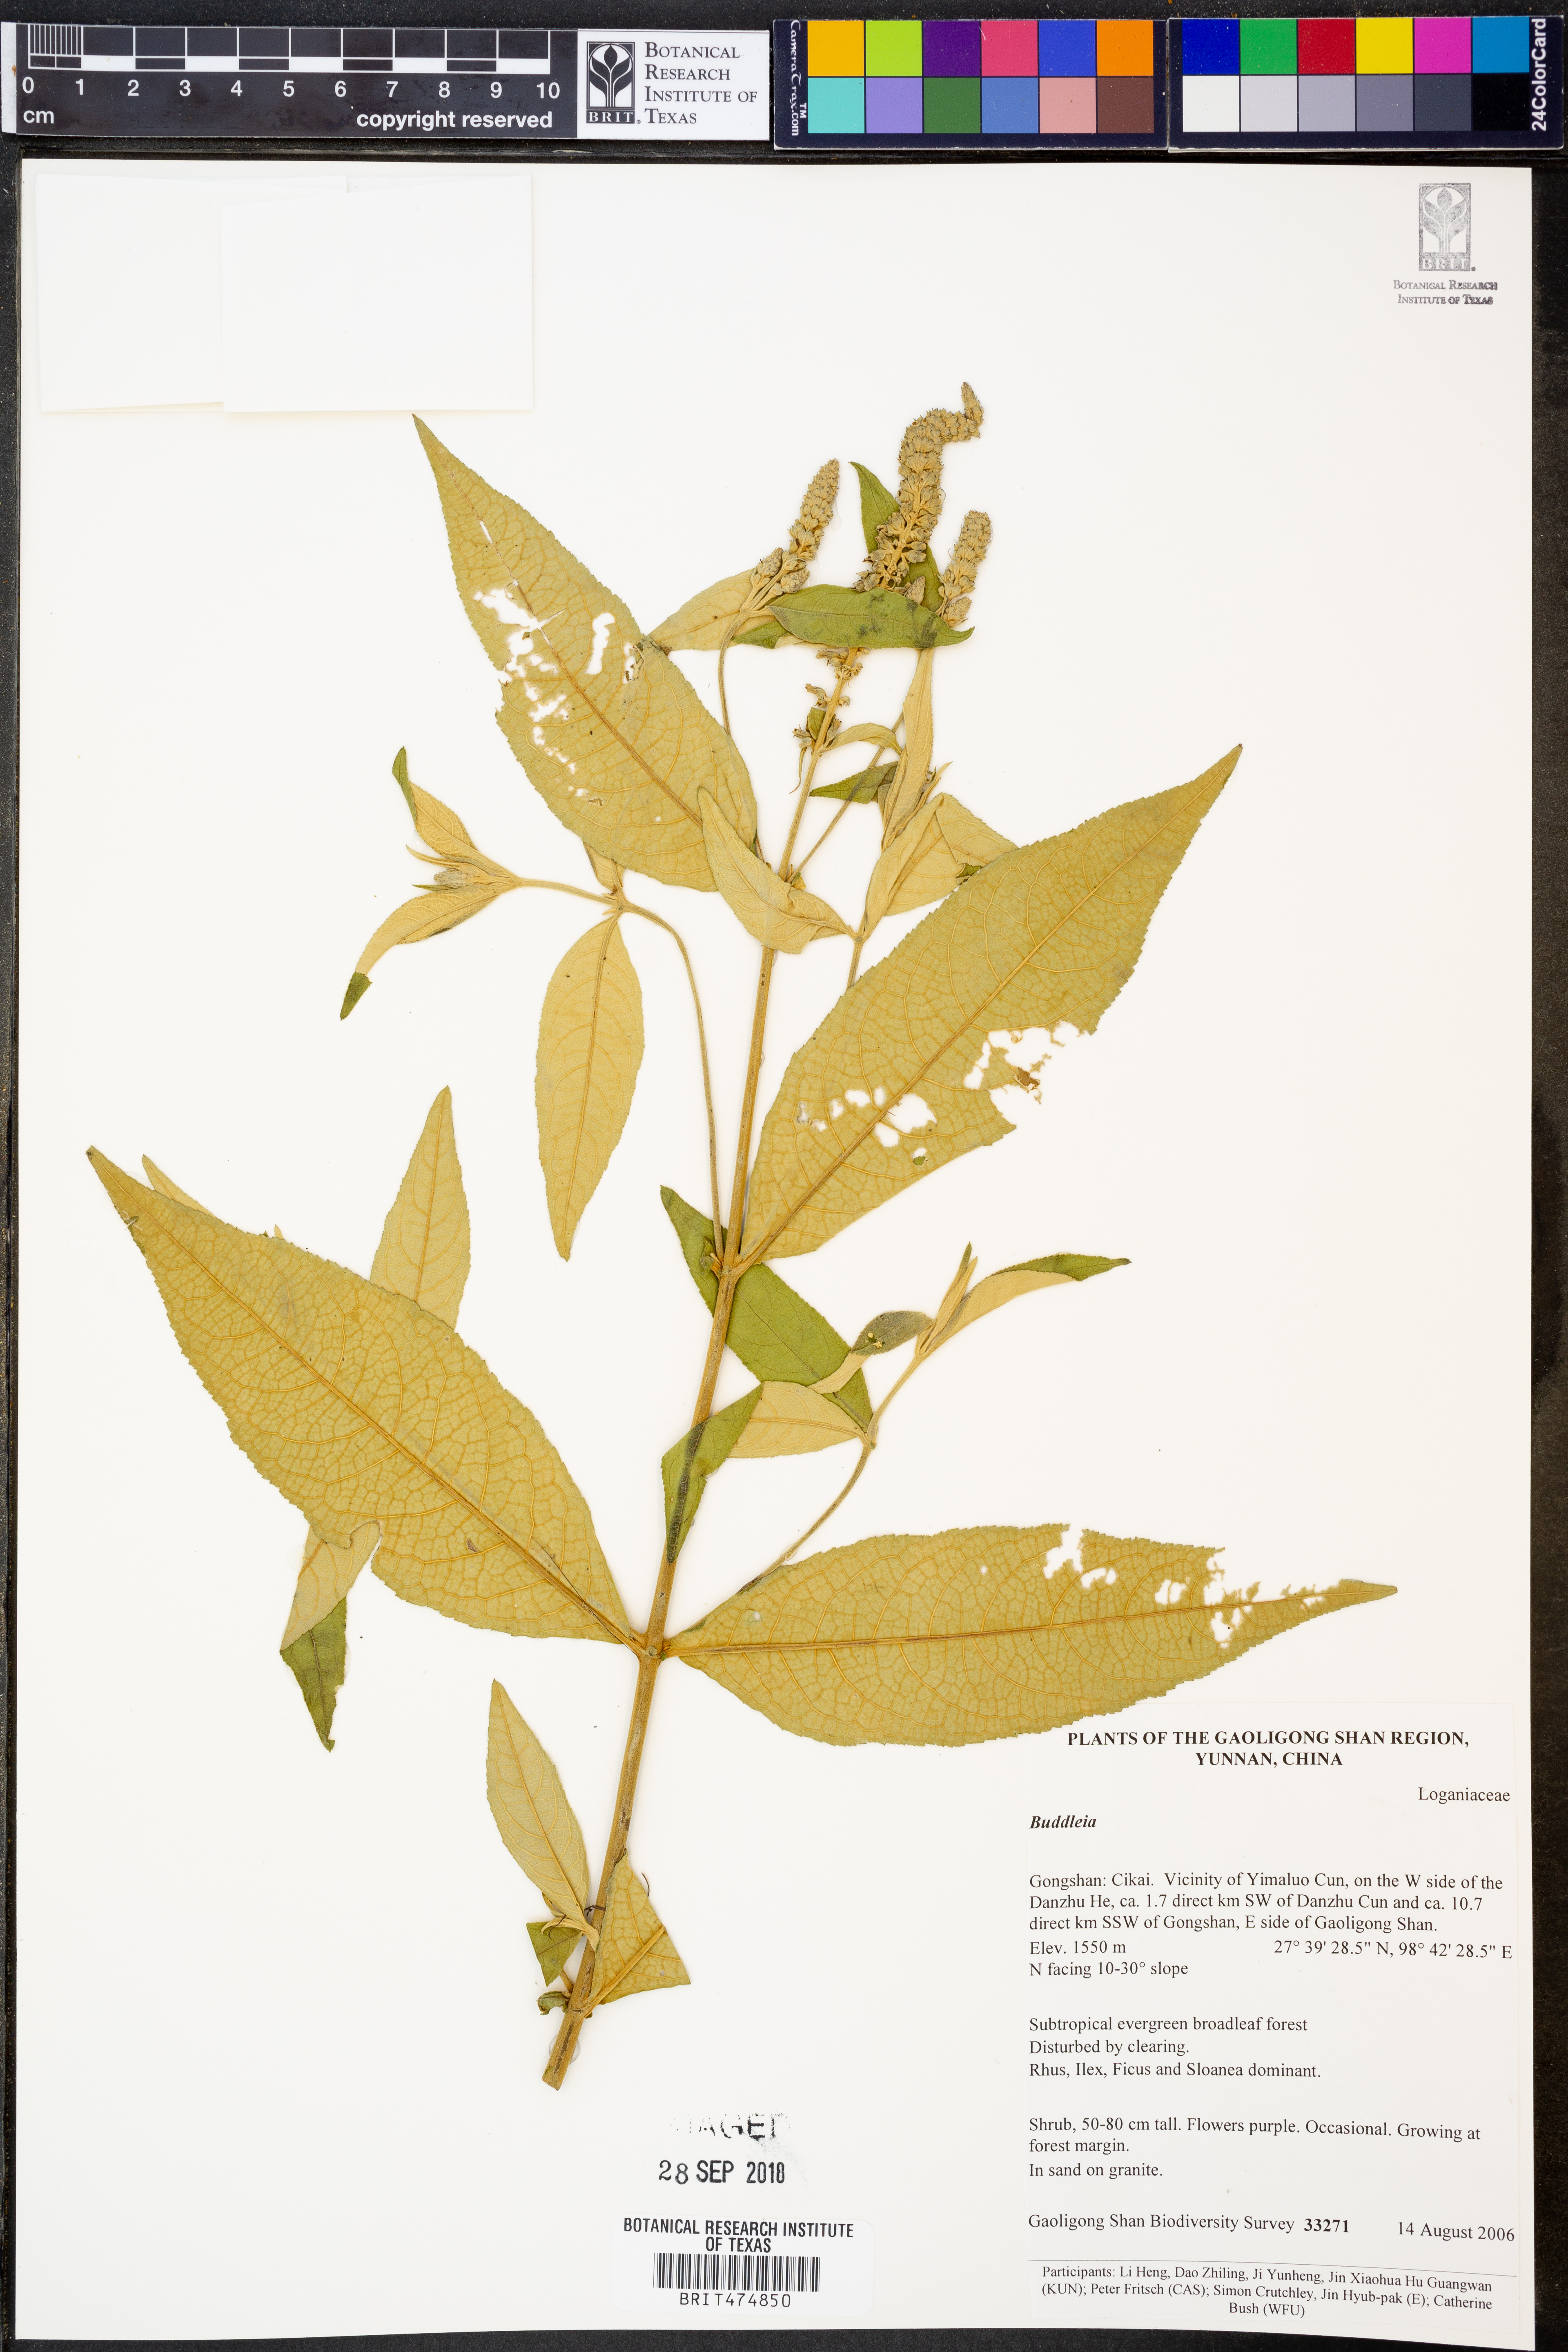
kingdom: Plantae
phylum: Tracheophyta
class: Magnoliopsida
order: Lamiales
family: Scrophulariaceae
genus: Buddleja
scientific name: Buddleja
